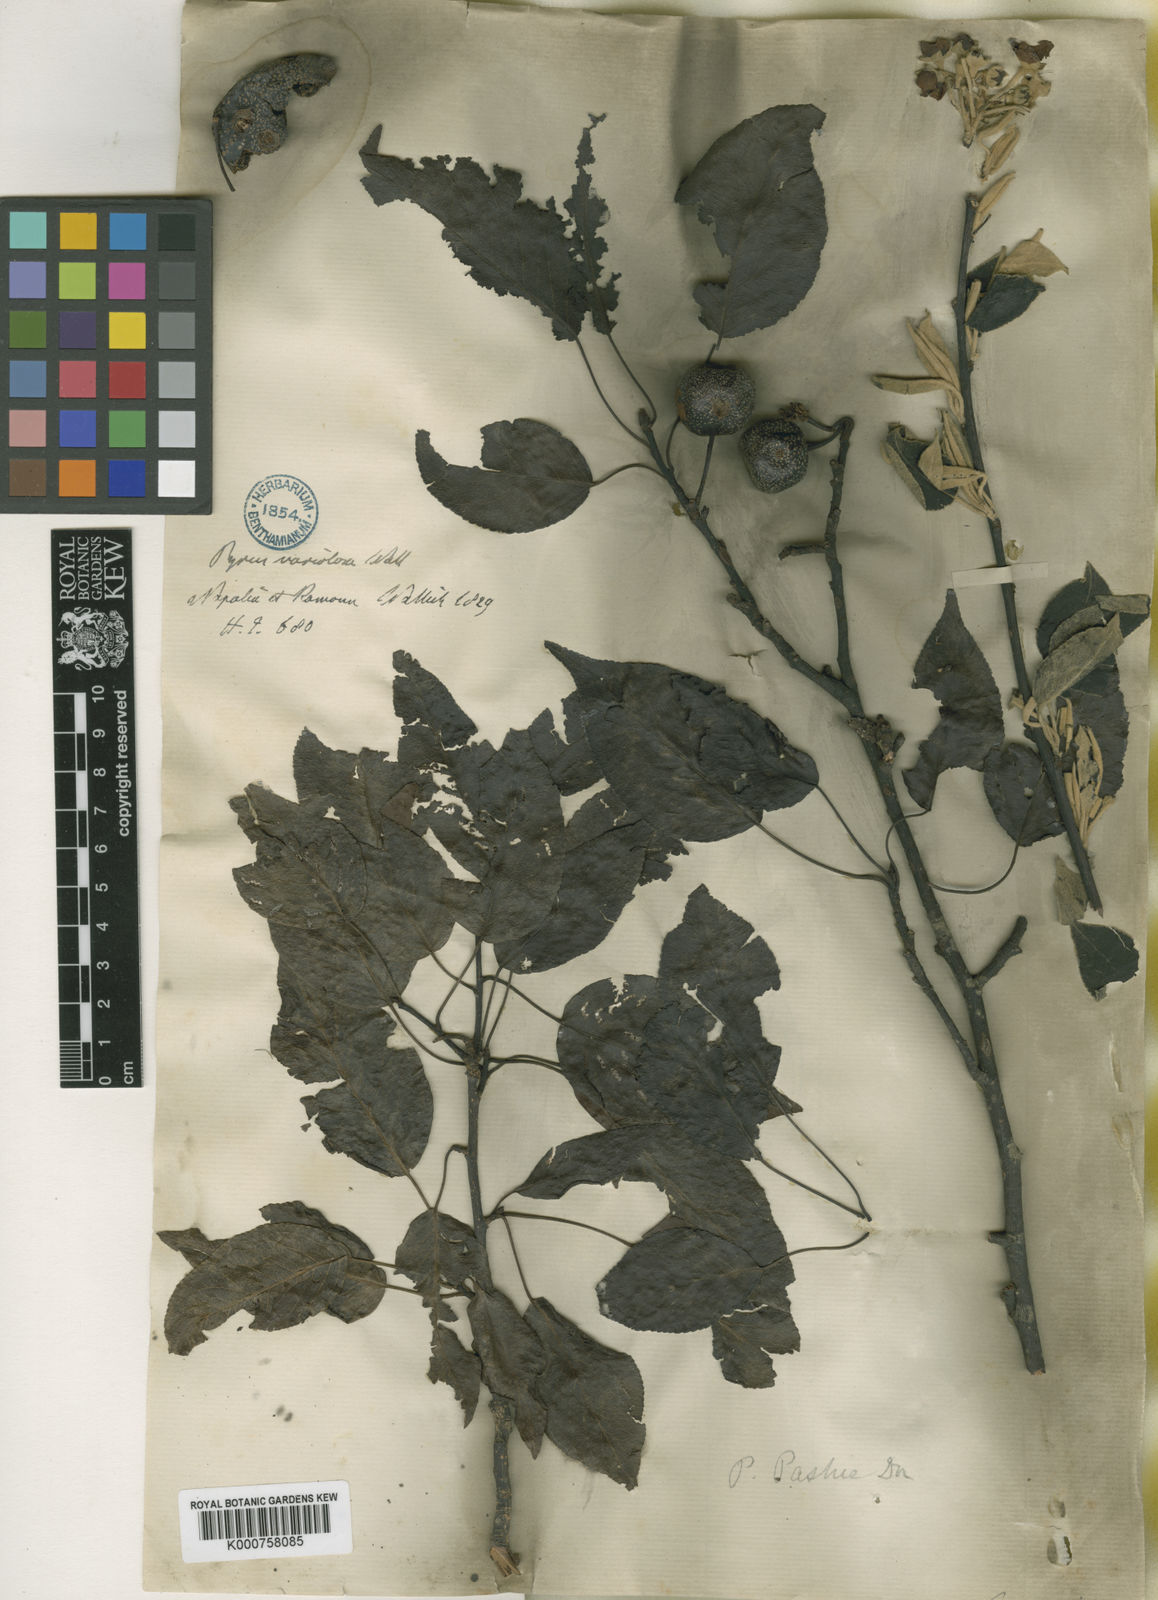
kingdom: Plantae
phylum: Tracheophyta
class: Magnoliopsida
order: Rosales
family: Rosaceae
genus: Pyrus
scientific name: Pyrus pashia
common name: Himalayan pear
